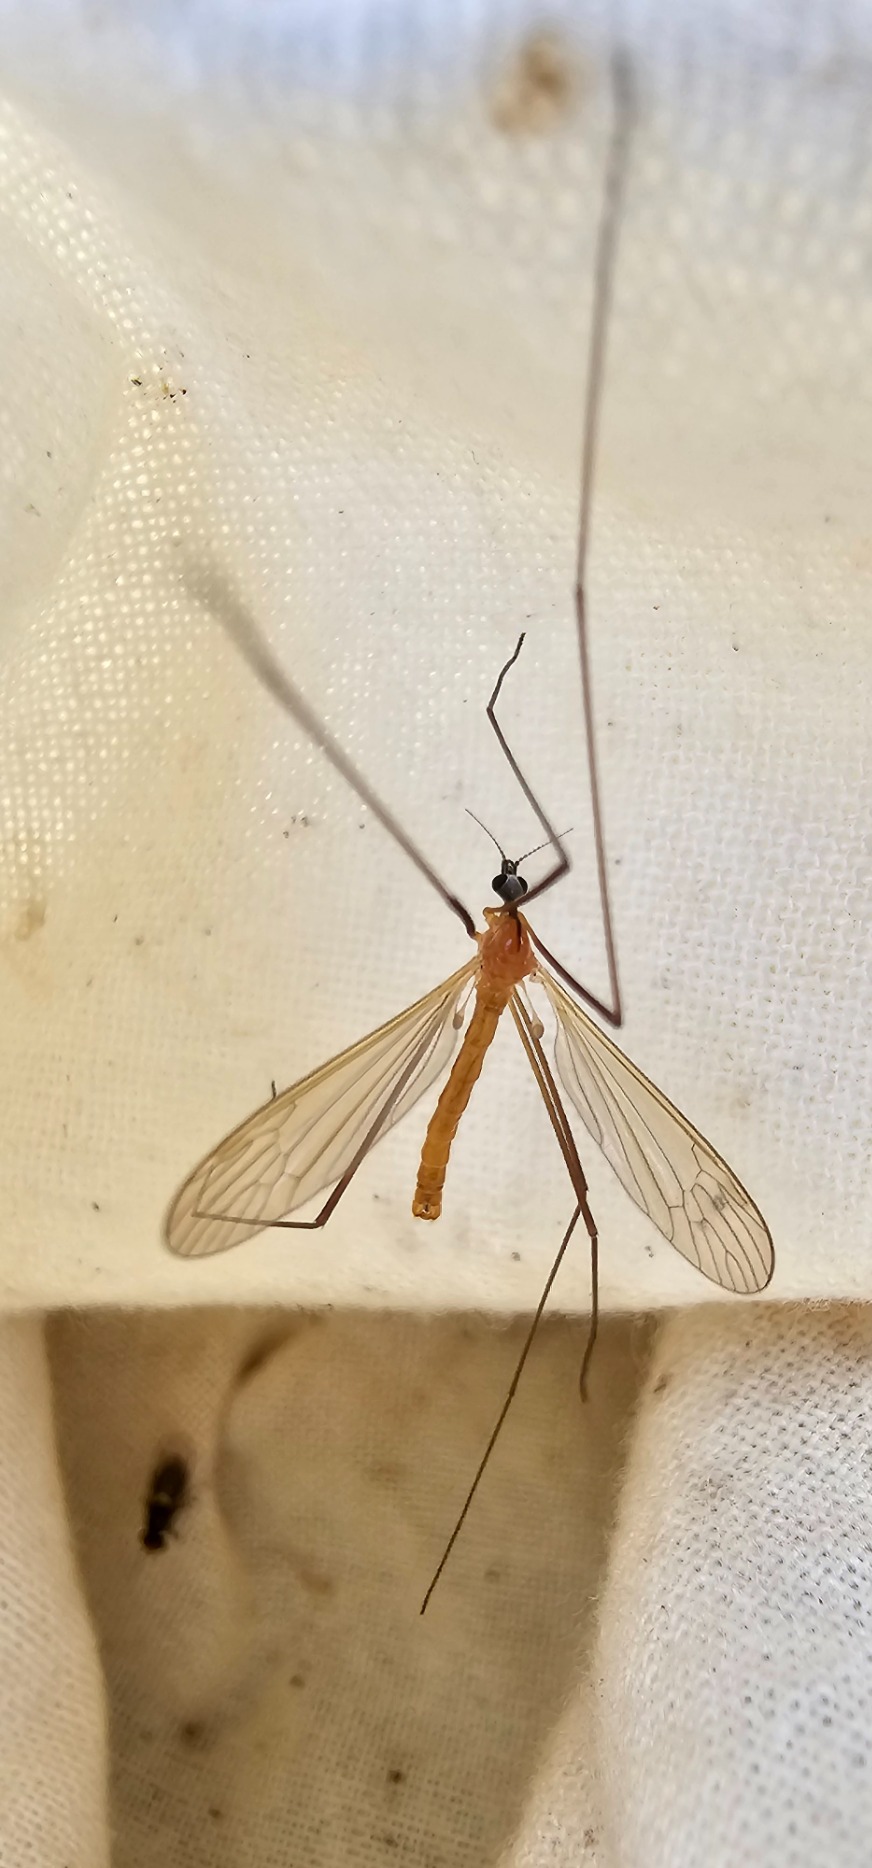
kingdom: Animalia
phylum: Arthropoda
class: Insecta
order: Diptera
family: Limoniidae
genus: Phylidorea
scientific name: Phylidorea fulvonervosa
